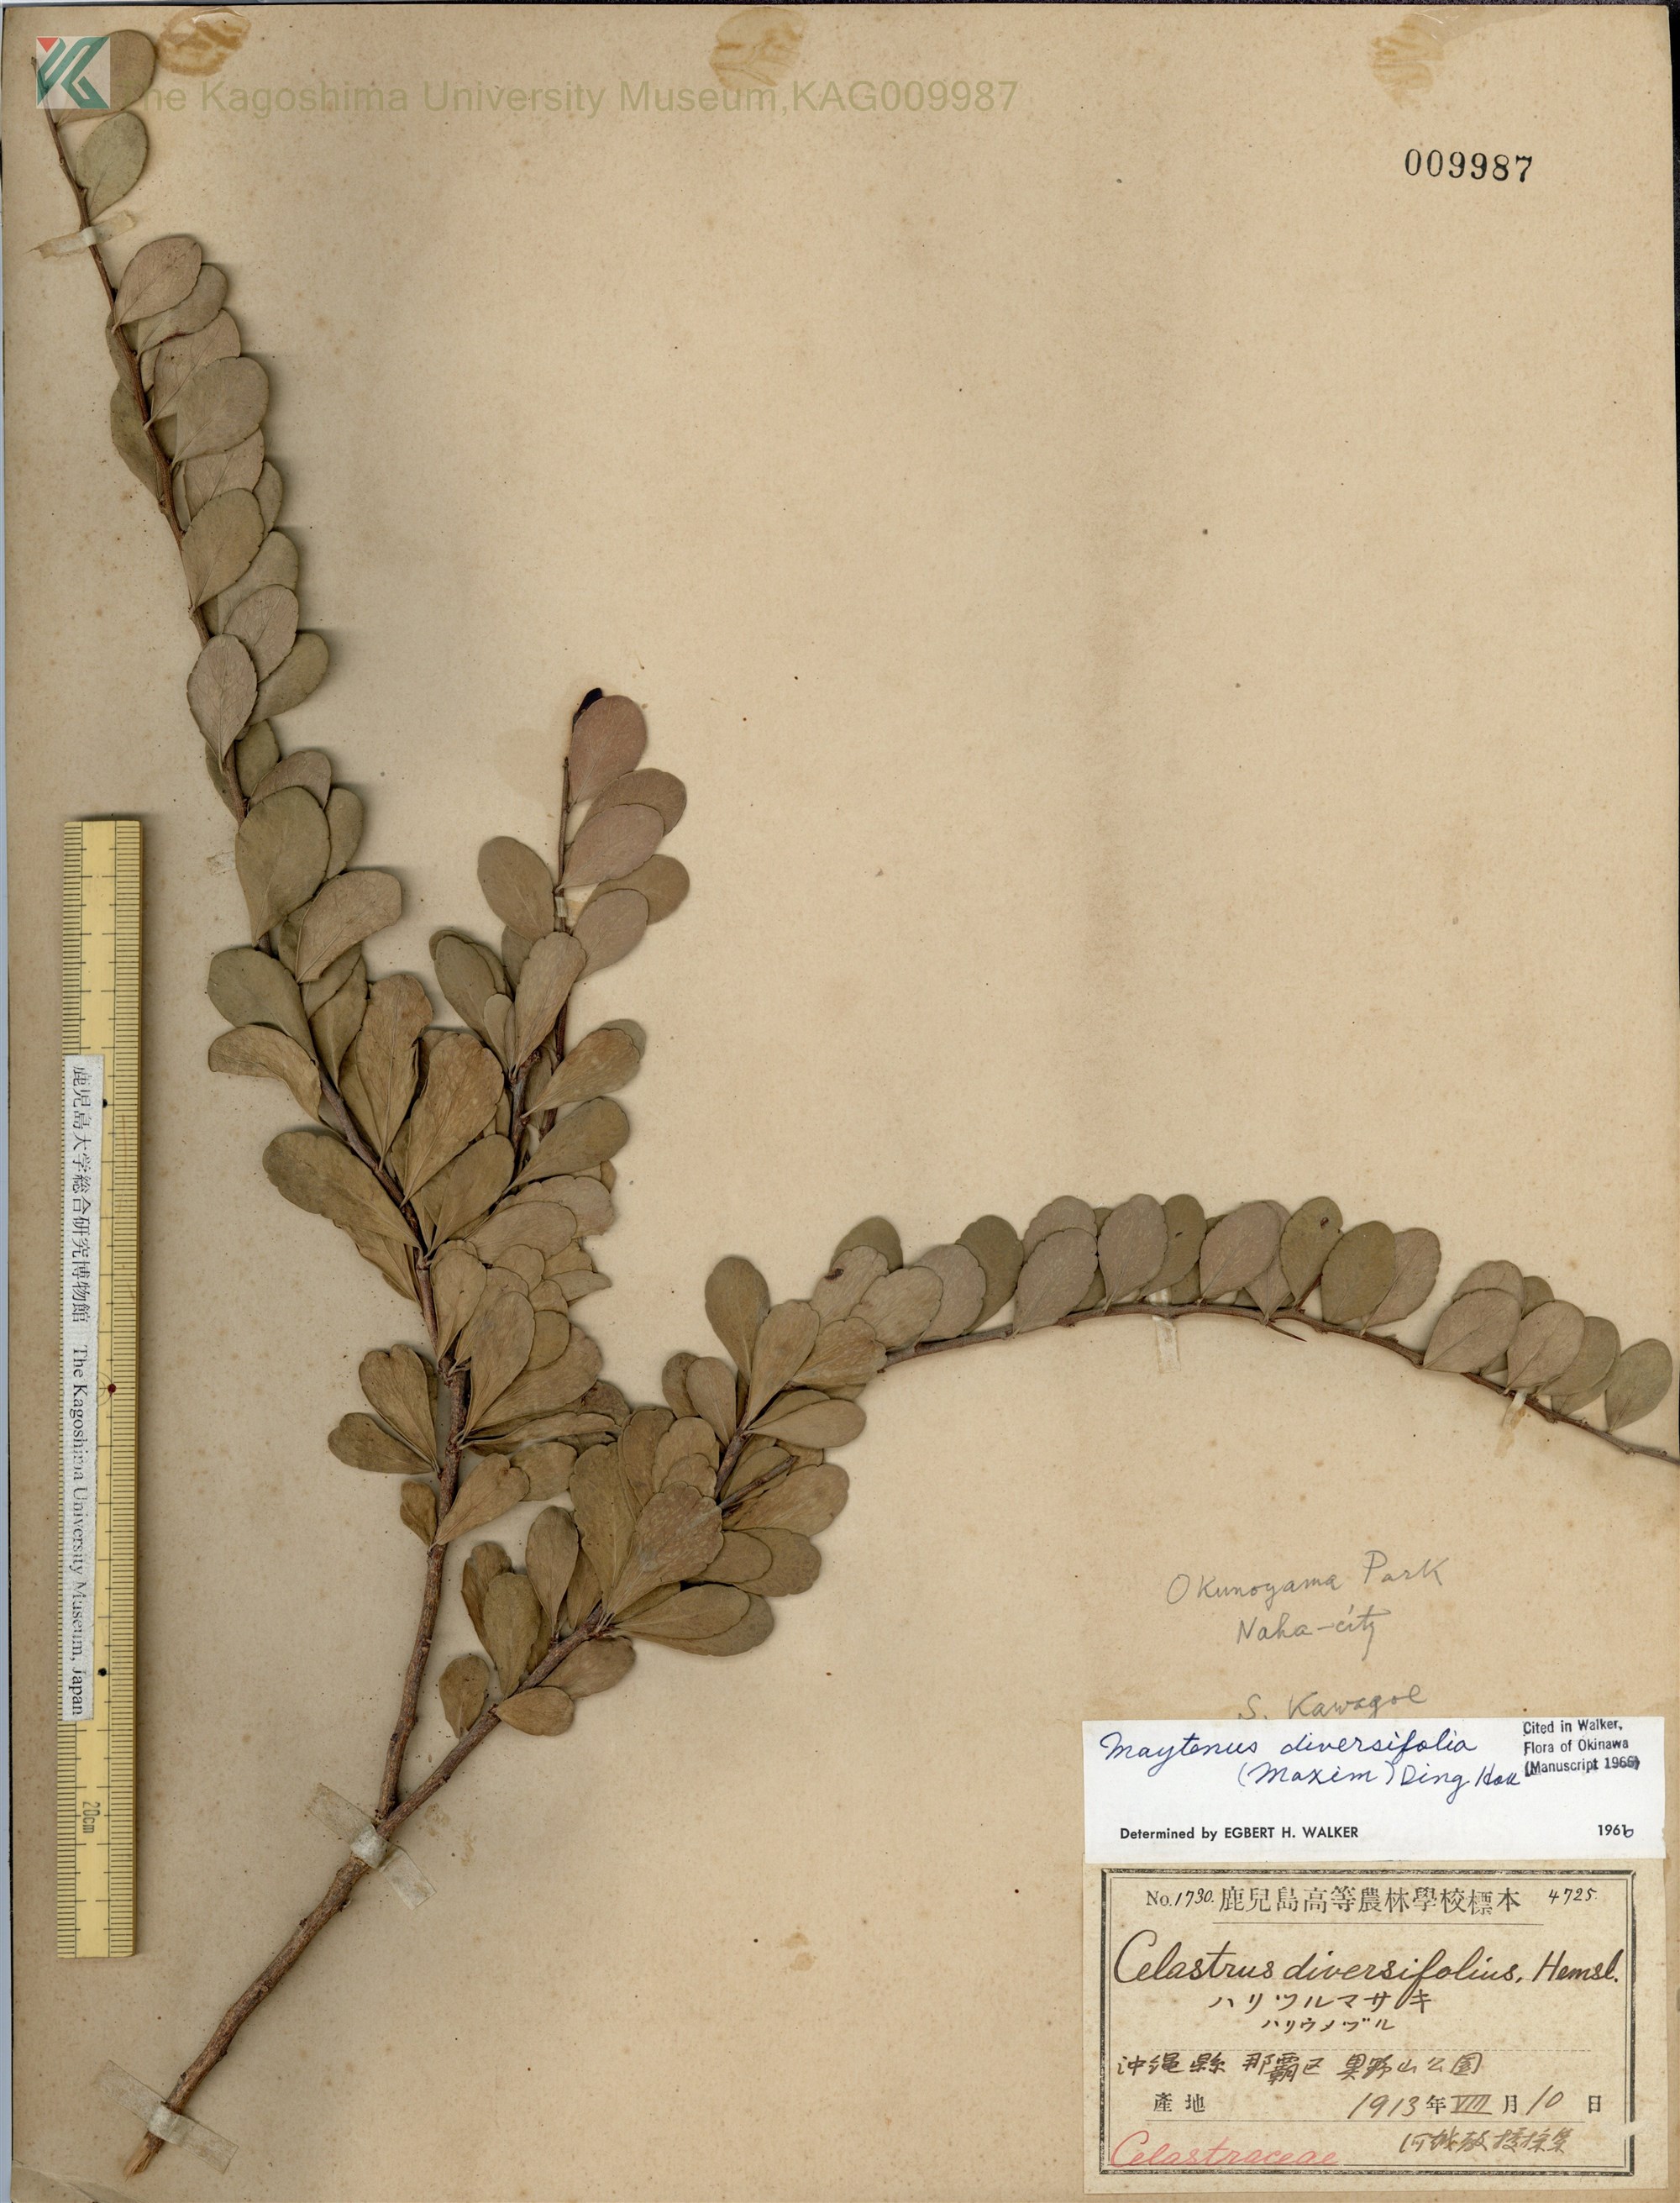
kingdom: Plantae
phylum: Tracheophyta
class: Magnoliopsida
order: Celastrales
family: Celastraceae
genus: Gymnosporia
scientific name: Gymnosporia diversifolia
